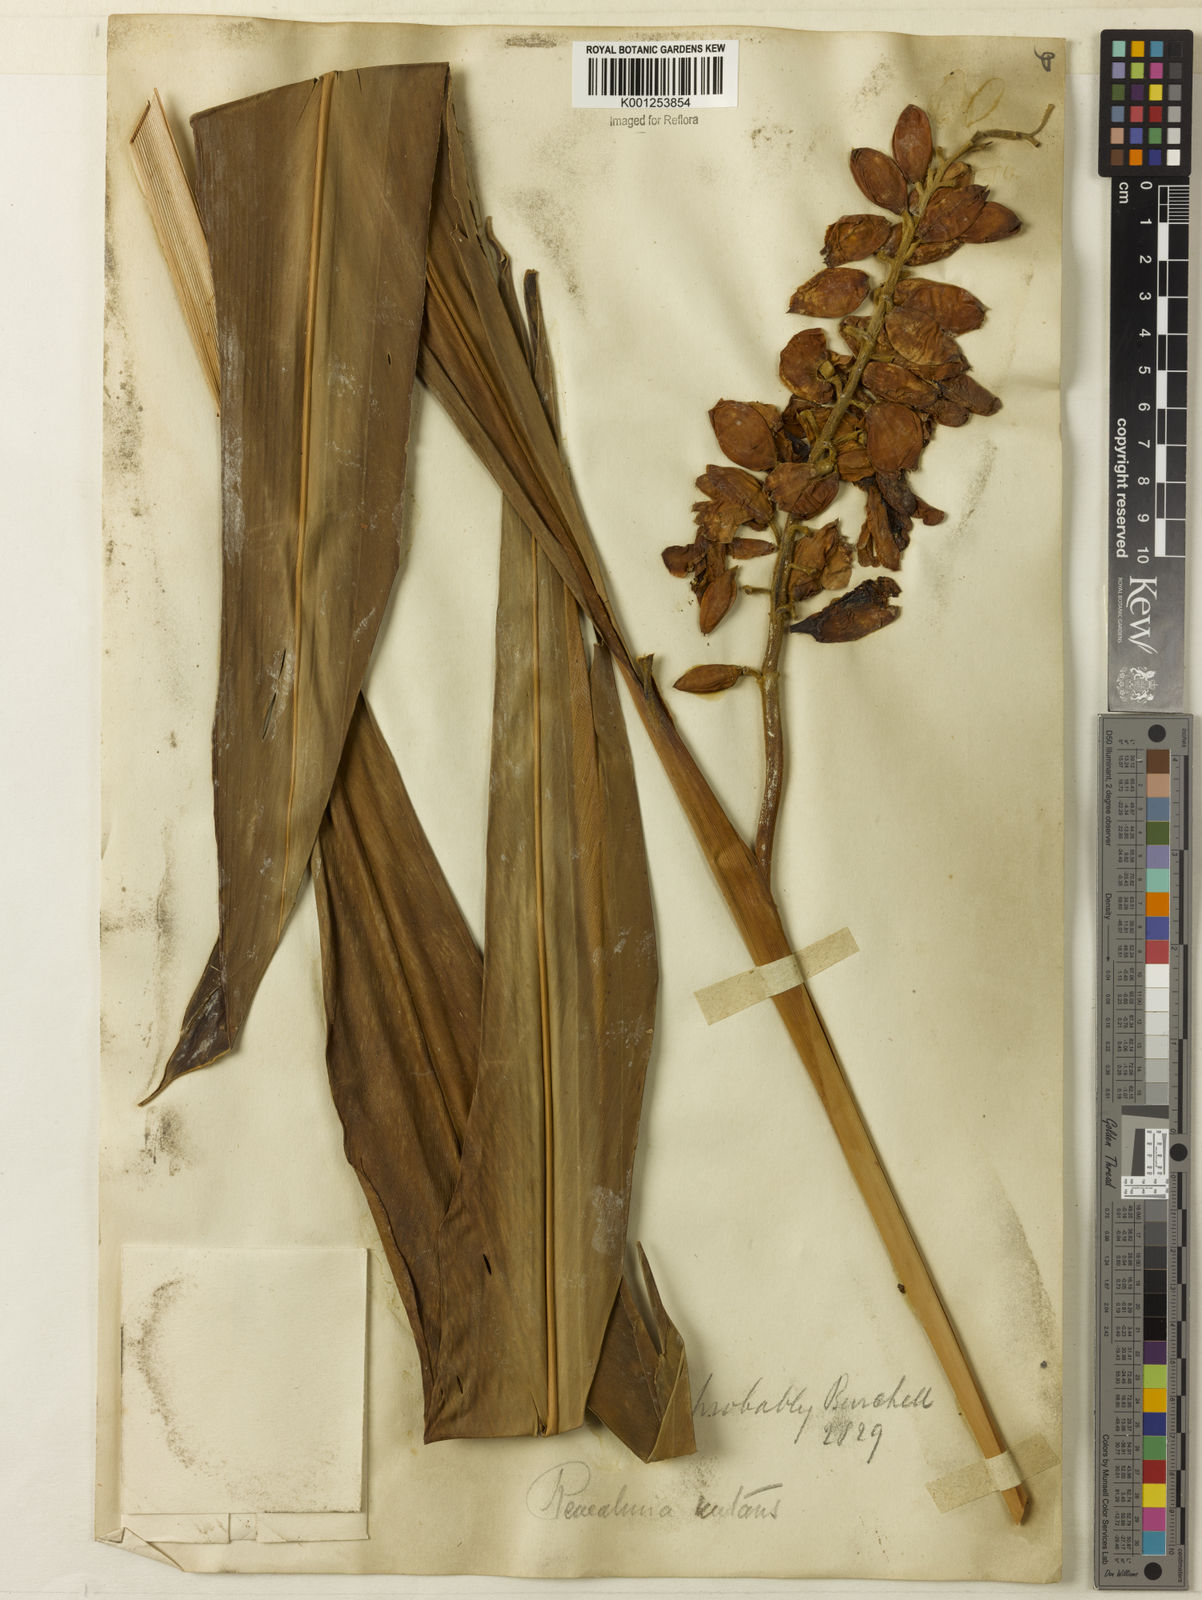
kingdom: Plantae
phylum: Tracheophyta
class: Liliopsida
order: Zingiberales
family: Zingiberaceae
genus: Alpinia
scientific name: Alpinia zerumbet
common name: Shellplant
